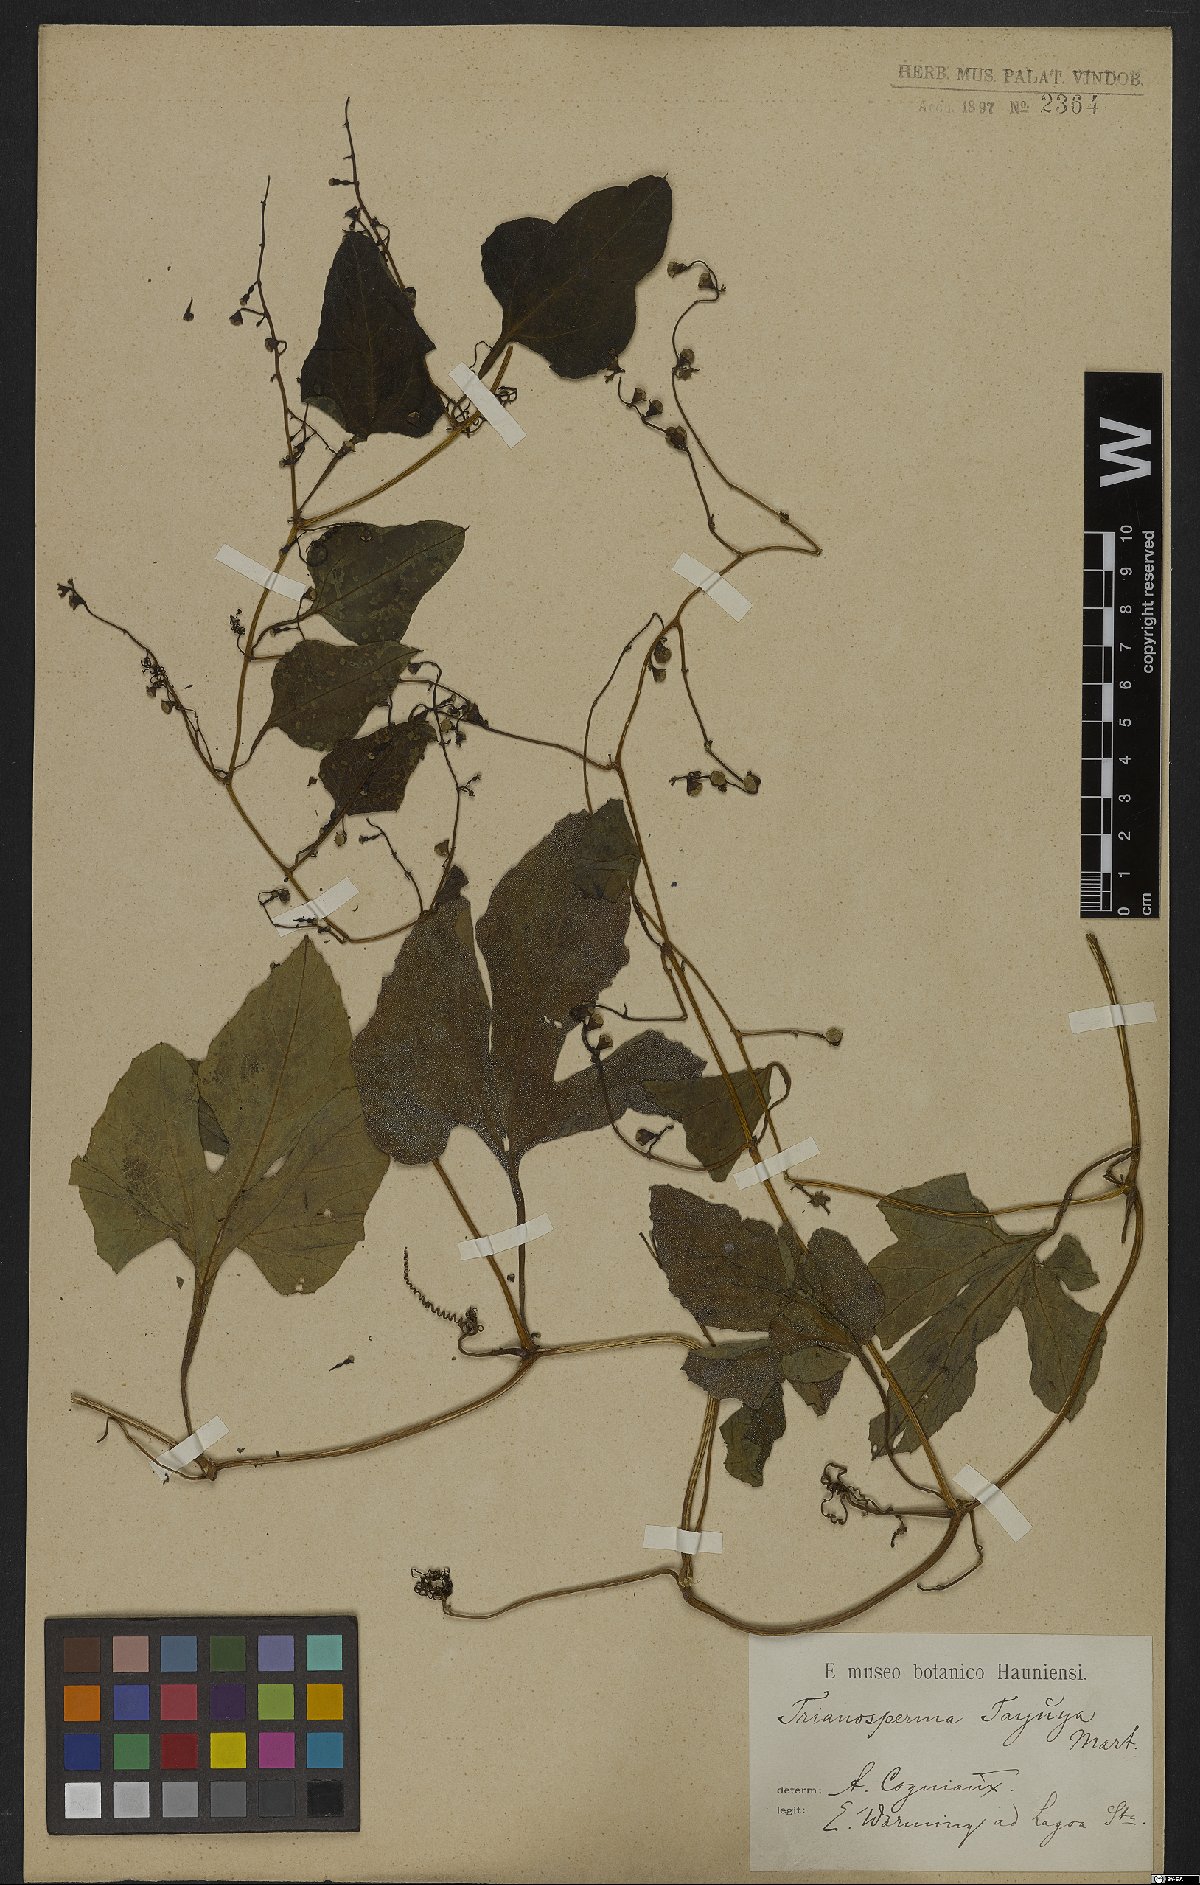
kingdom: Plantae
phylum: Tracheophyta
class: Magnoliopsida
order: Cucurbitales
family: Cucurbitaceae
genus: Cayaponia
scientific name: Cayaponia tayuya
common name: Tayuya
